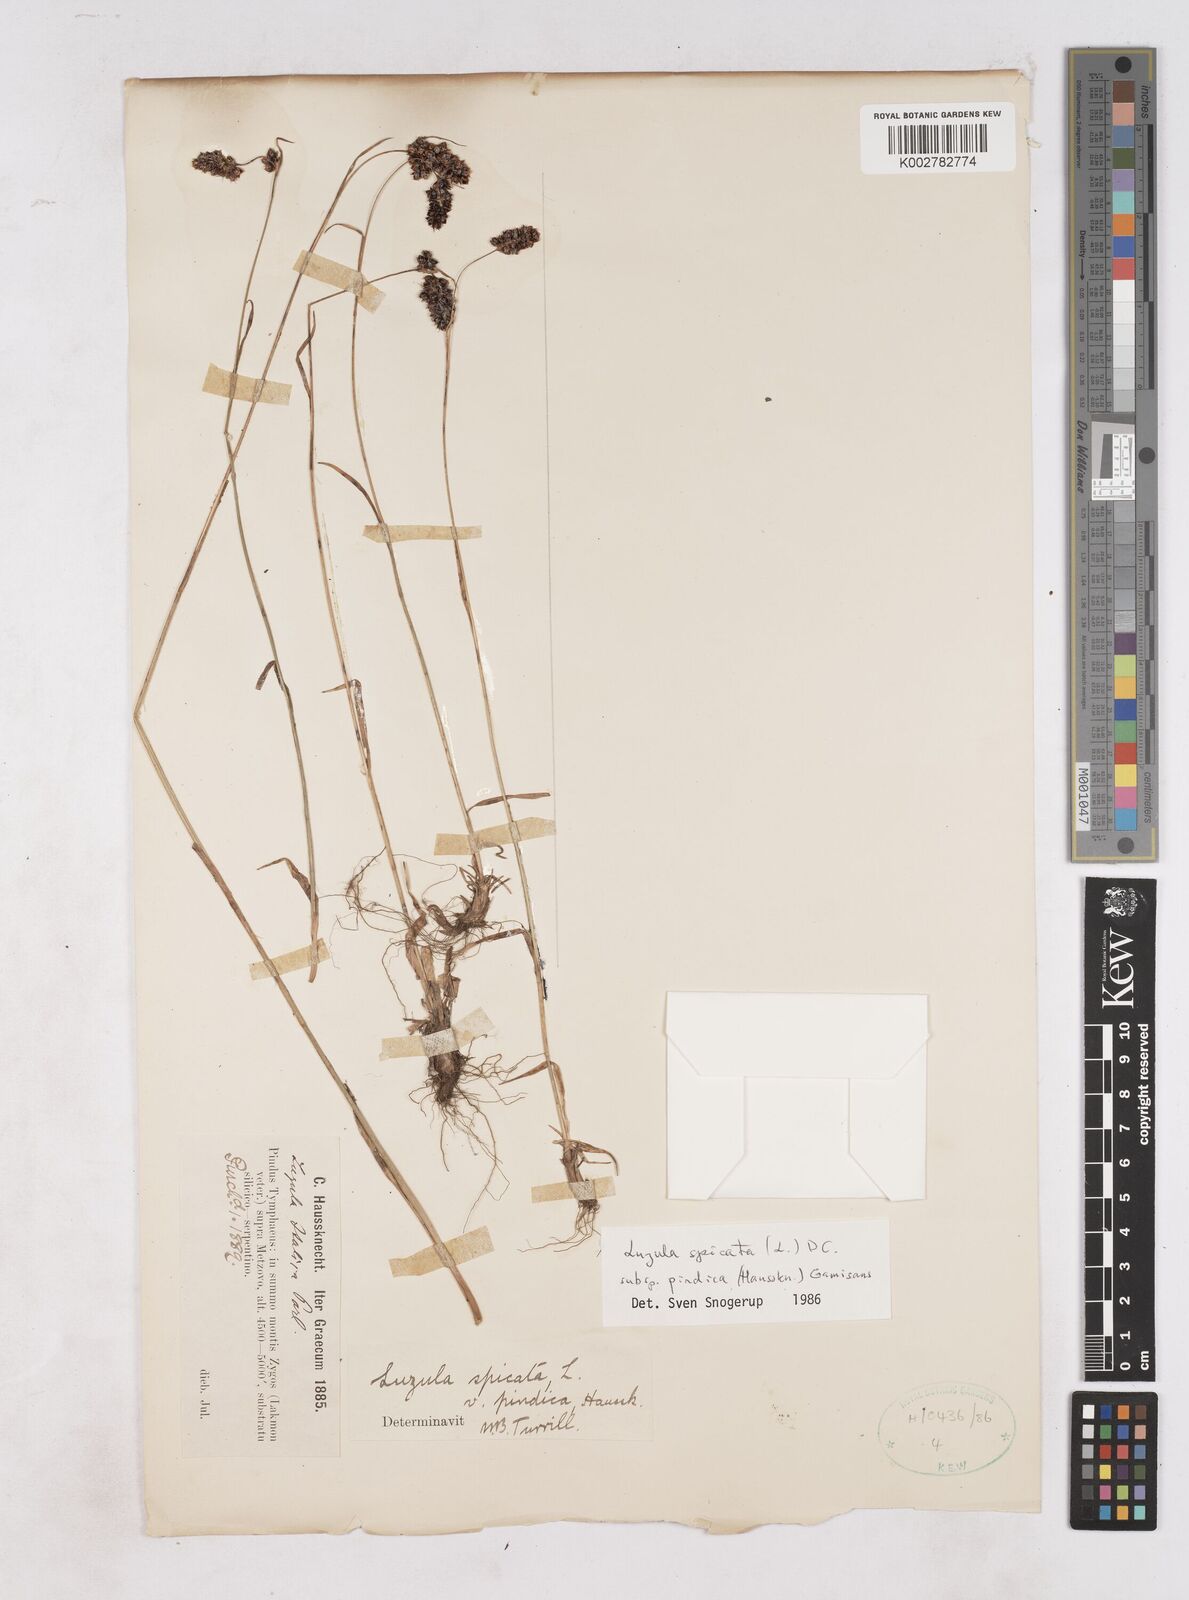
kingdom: Plantae
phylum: Tracheophyta
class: Liliopsida
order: Poales
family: Juncaceae
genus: Luzula
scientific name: Luzula pindica
